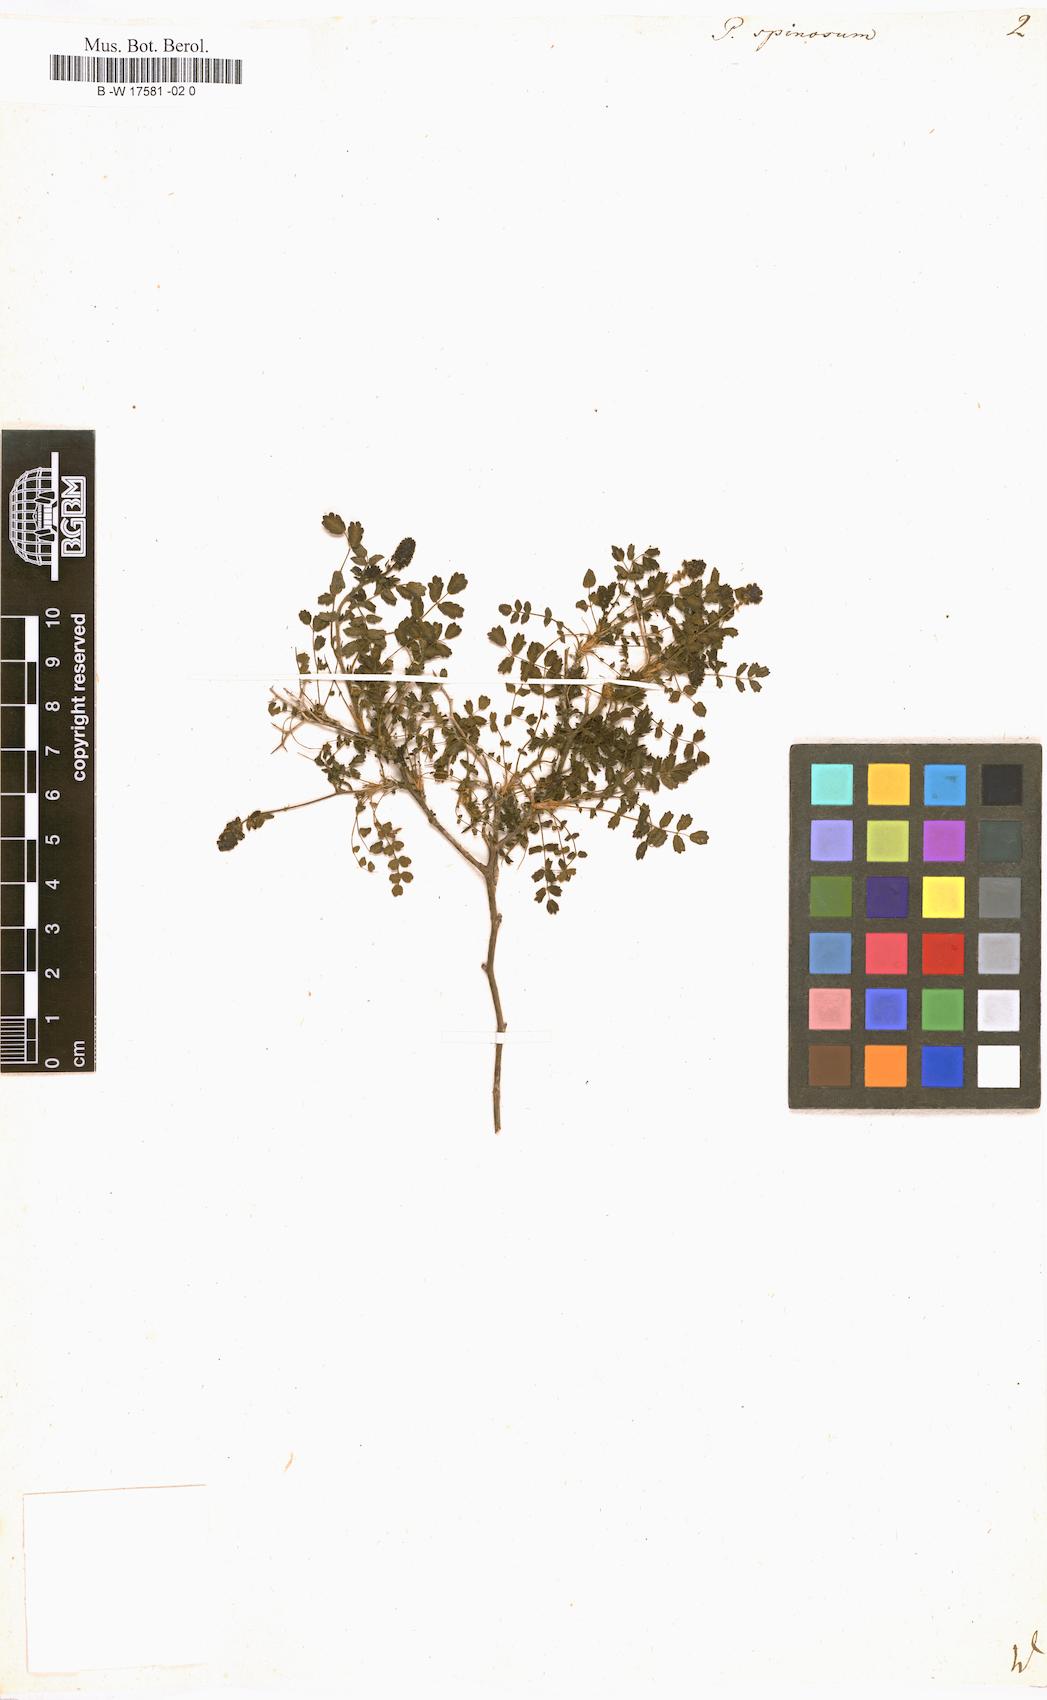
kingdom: Plantae
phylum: Tracheophyta
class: Magnoliopsida
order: Rosales
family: Rosaceae
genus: Sarcopoterium
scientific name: Sarcopoterium spinosum
